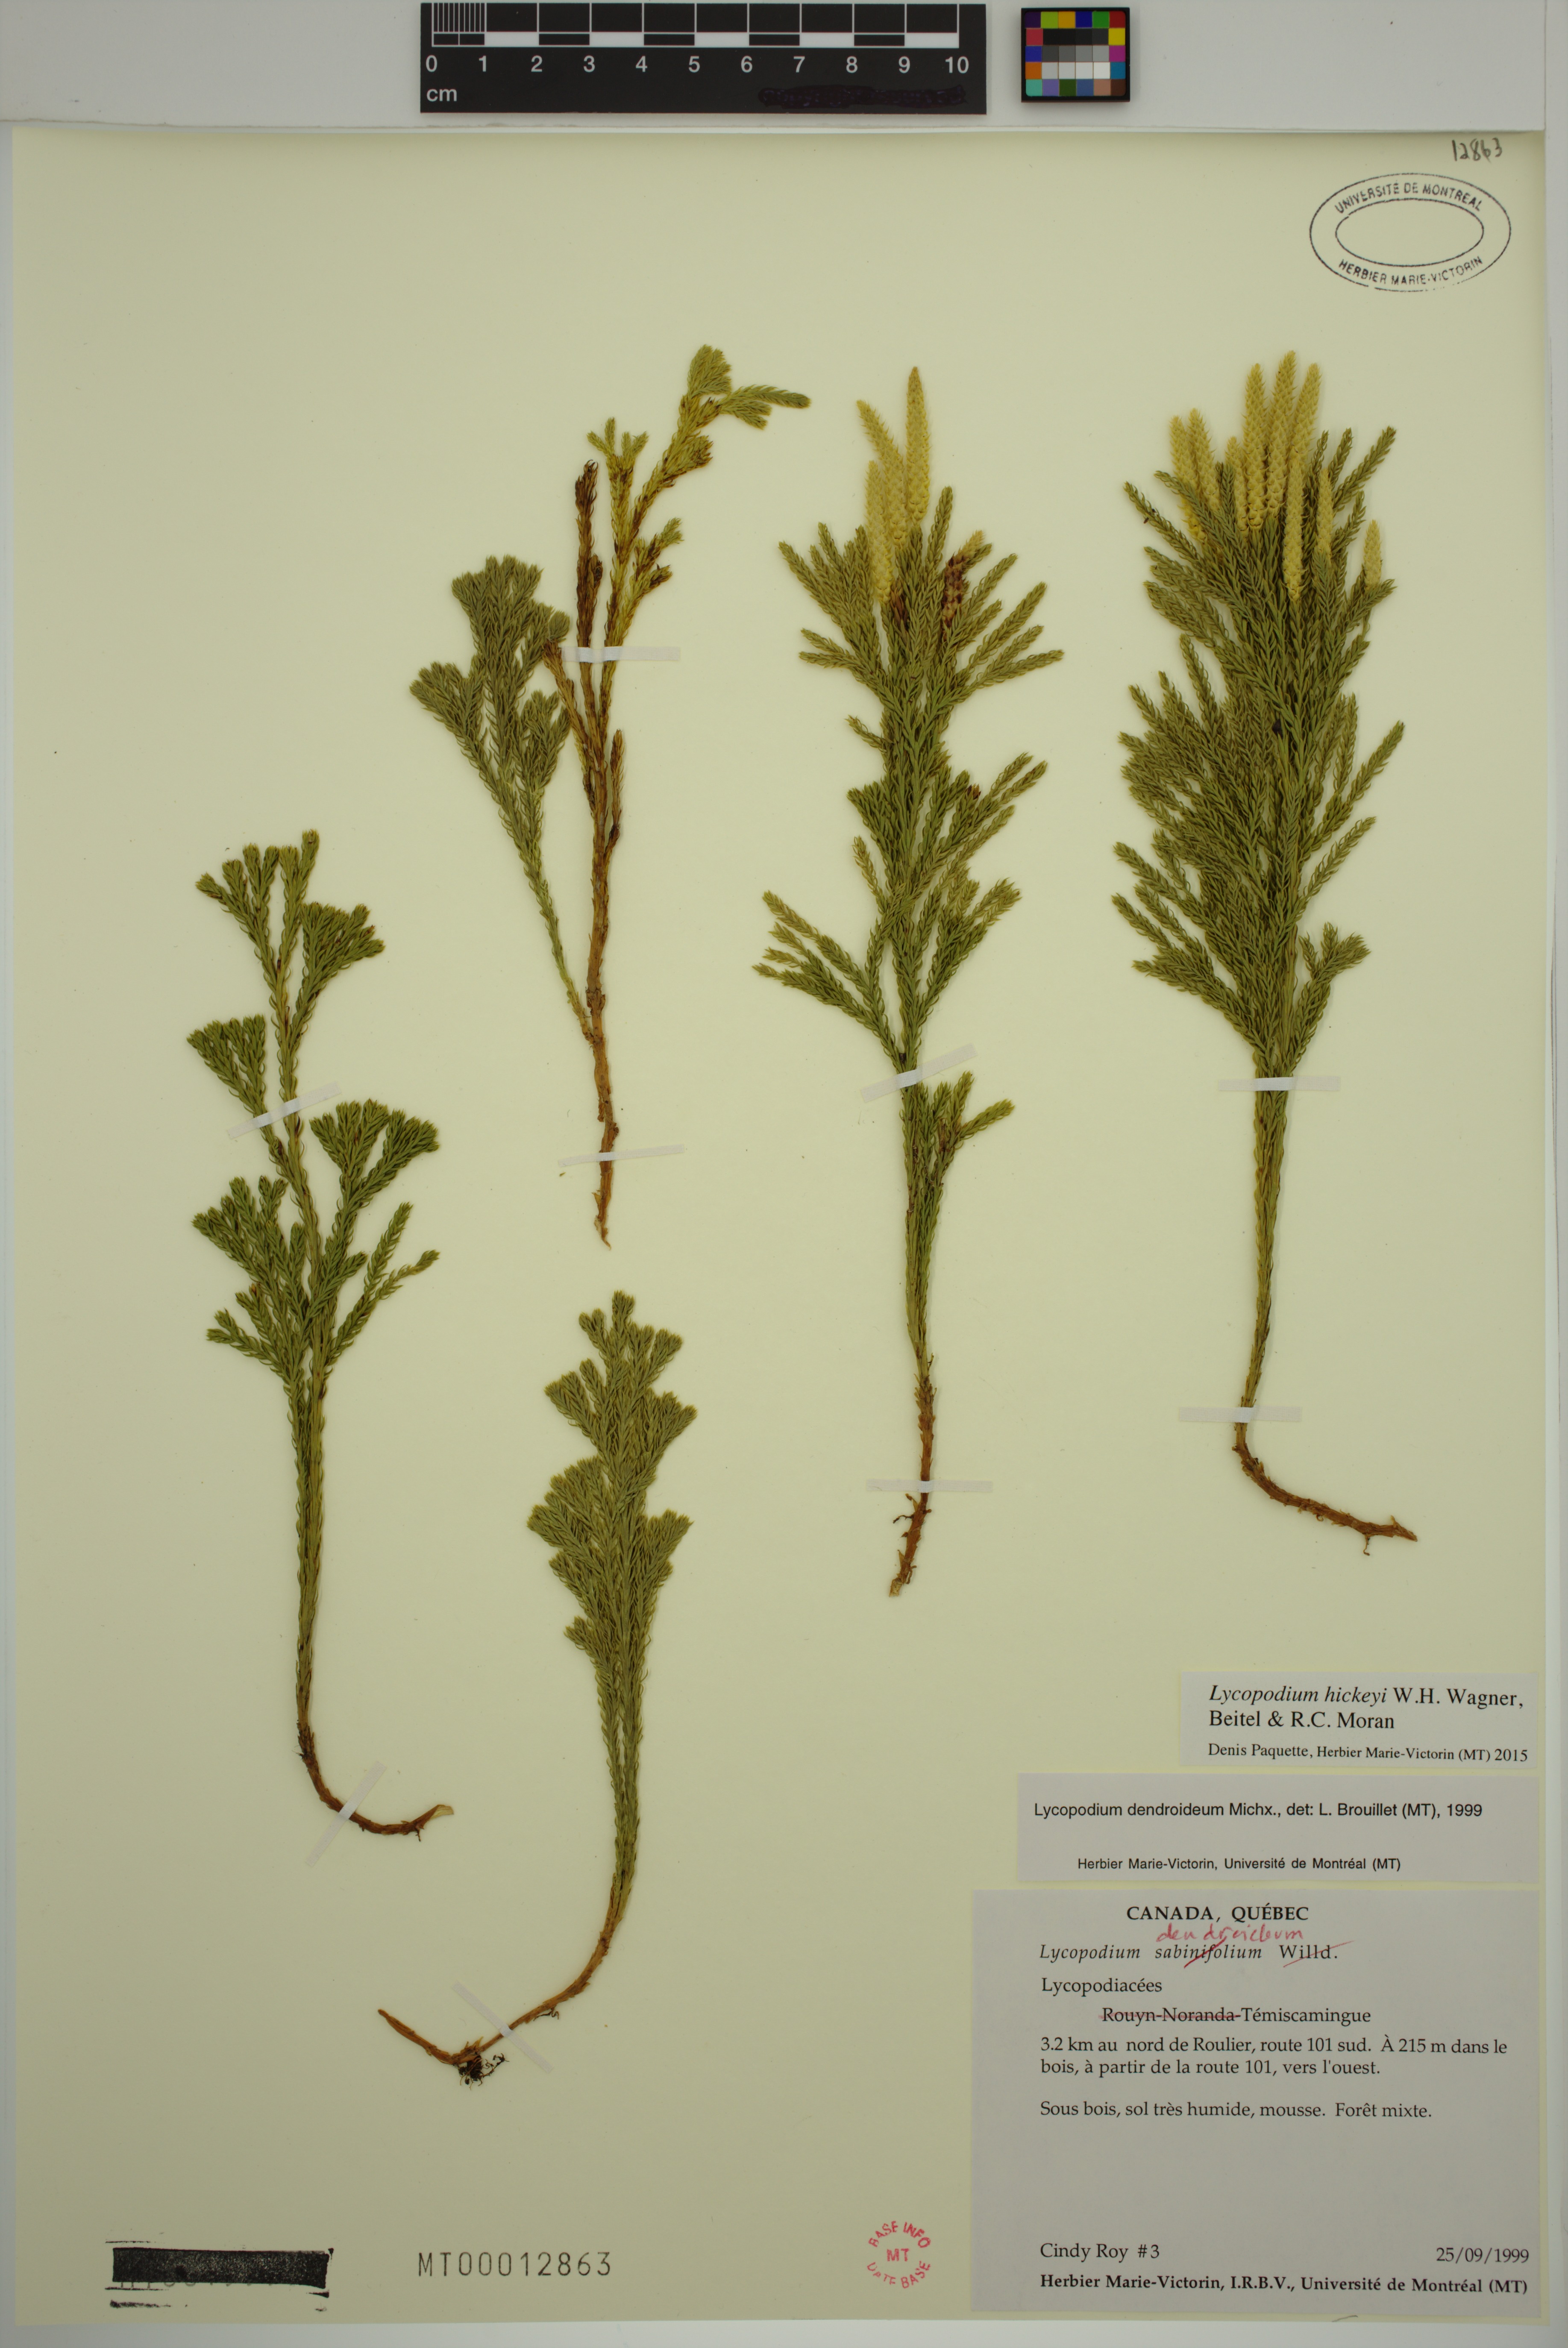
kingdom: Plantae
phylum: Tracheophyta
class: Lycopodiopsida
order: Lycopodiales
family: Lycopodiaceae
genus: Dendrolycopodium
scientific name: Dendrolycopodium hickeyi
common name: Hickey's clubmoss
